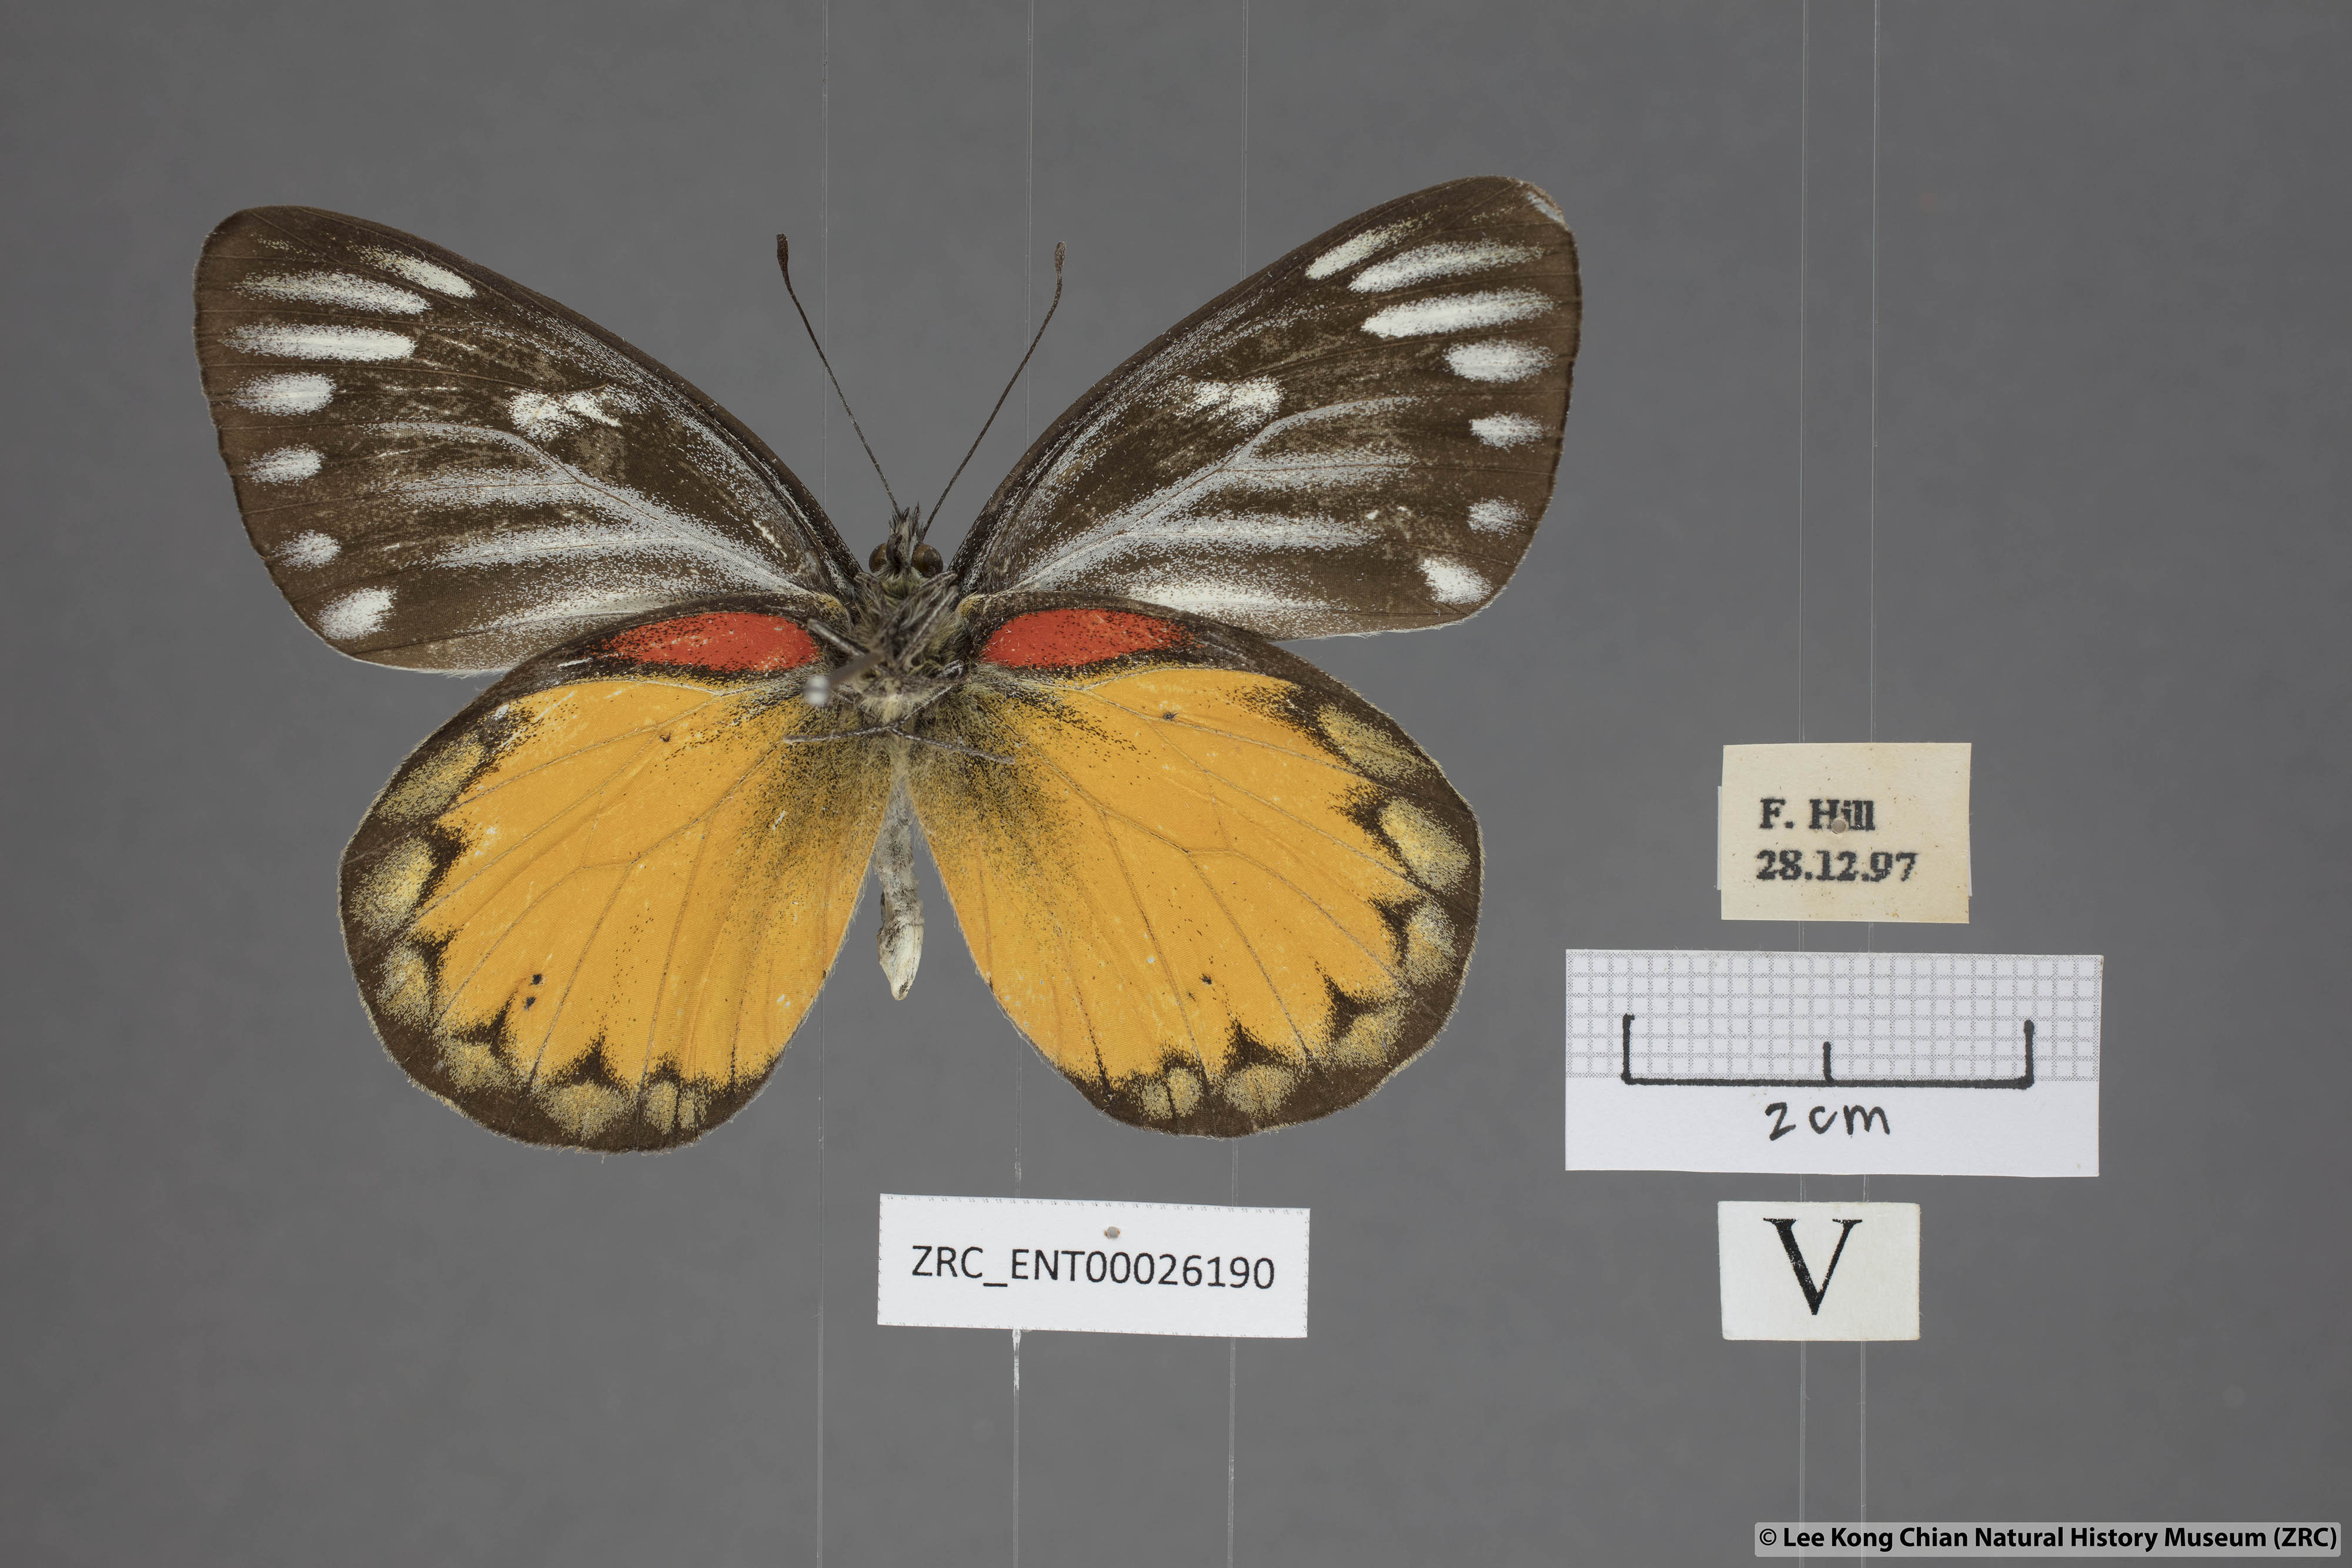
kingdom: Animalia
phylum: Arthropoda
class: Insecta
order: Lepidoptera
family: Pieridae
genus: Delias
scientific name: Delias descombesi
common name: Red-spot jezebel
